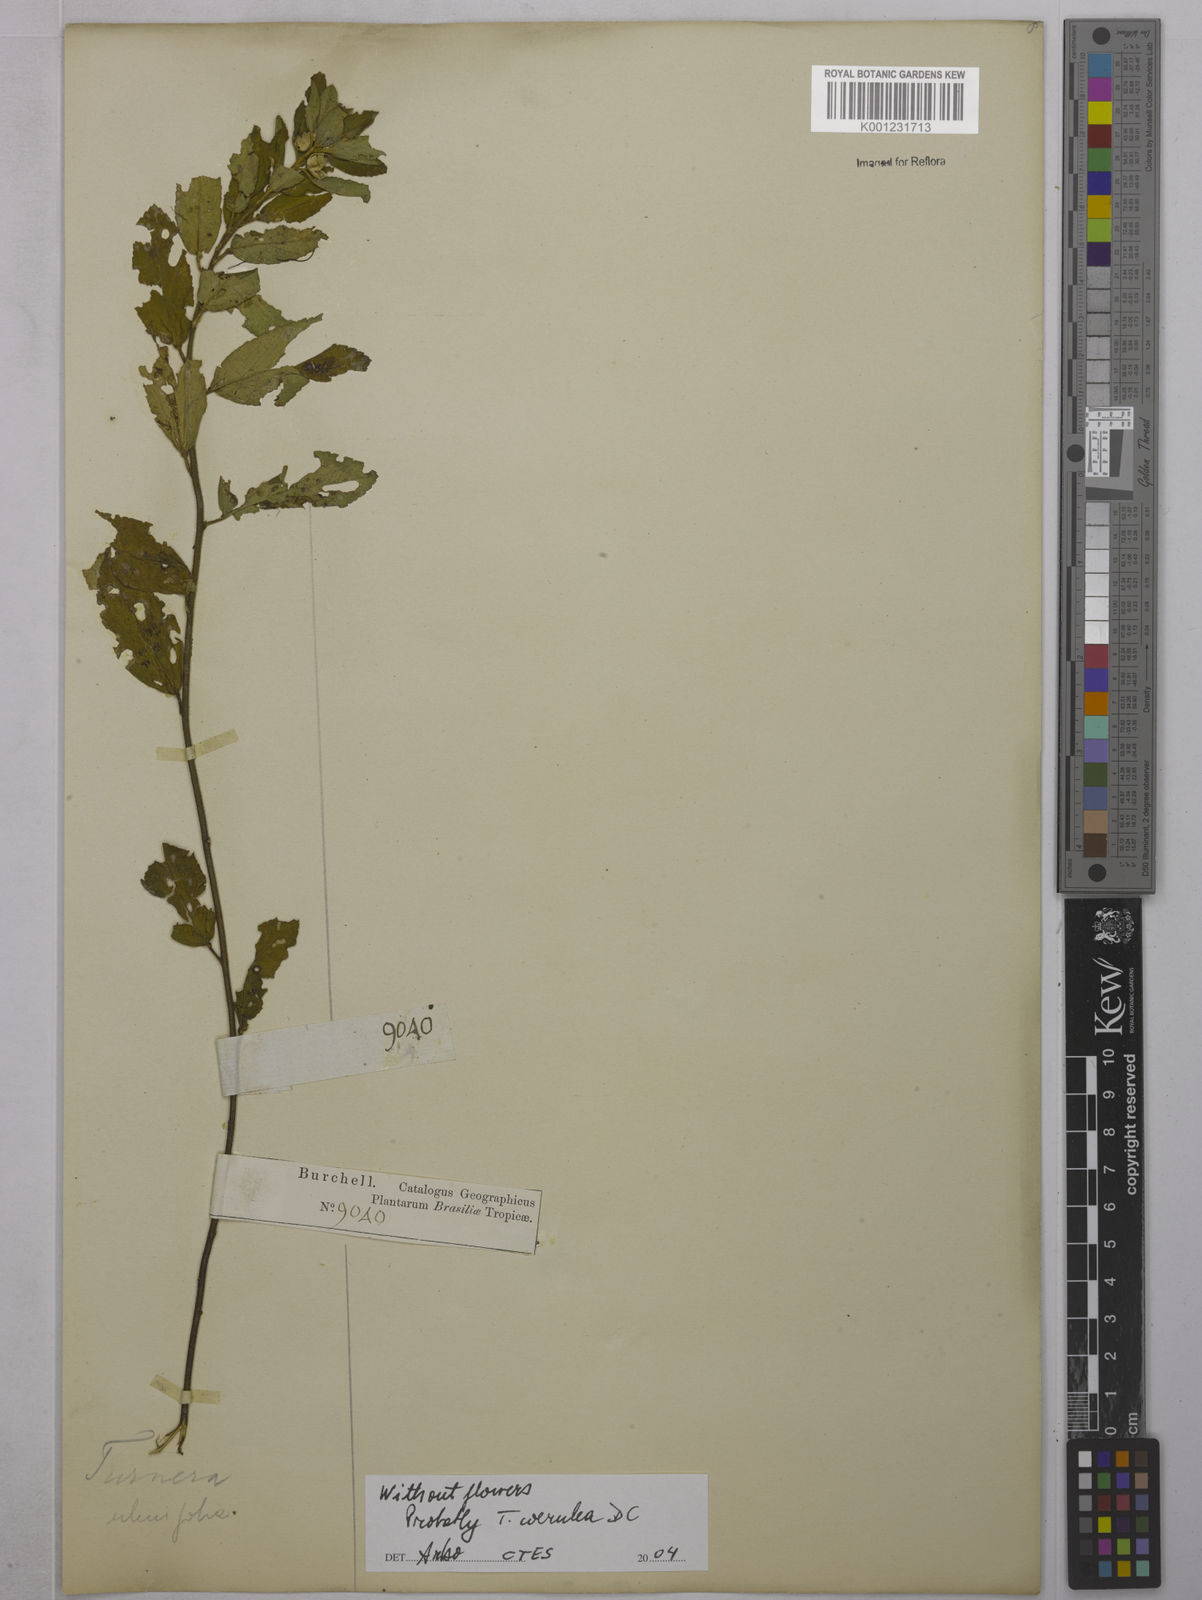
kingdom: Plantae
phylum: Tracheophyta
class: Magnoliopsida
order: Malpighiales
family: Turneraceae
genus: Turnera
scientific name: Turnera
